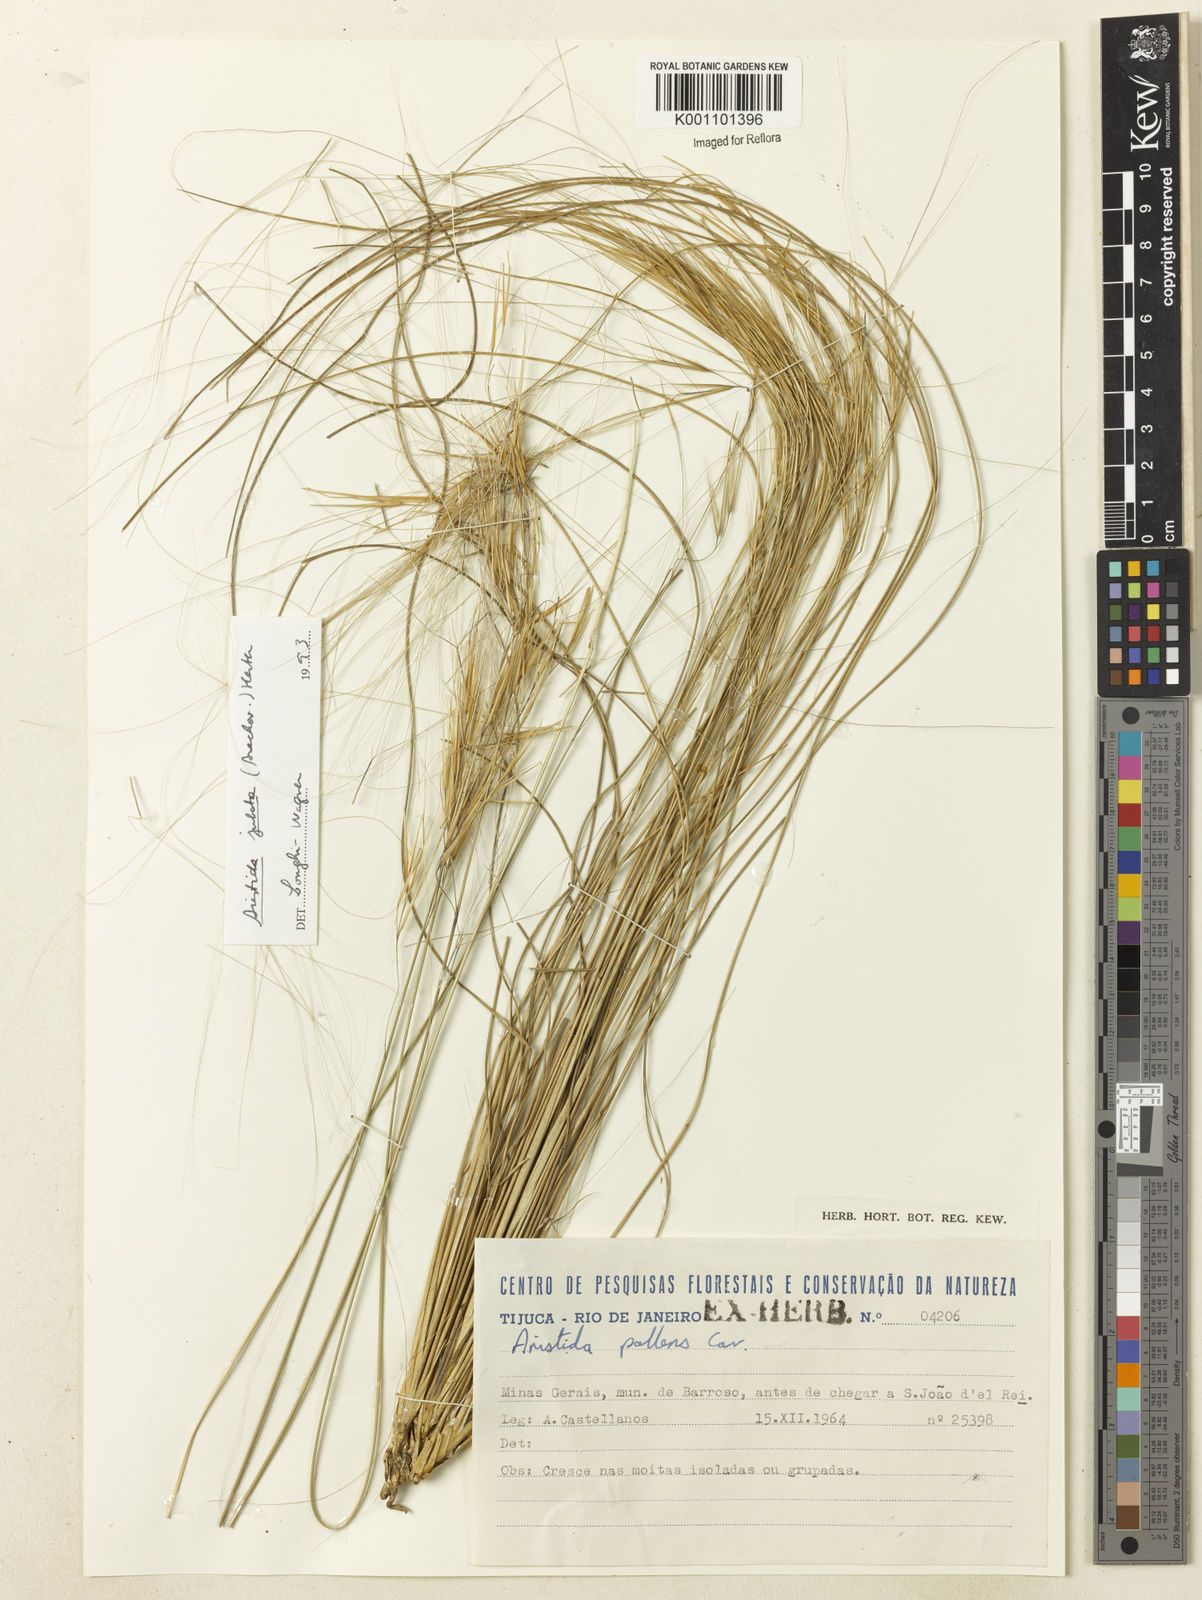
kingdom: Plantae
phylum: Tracheophyta
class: Liliopsida
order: Poales
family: Poaceae
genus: Aristida
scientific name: Aristida jubata
